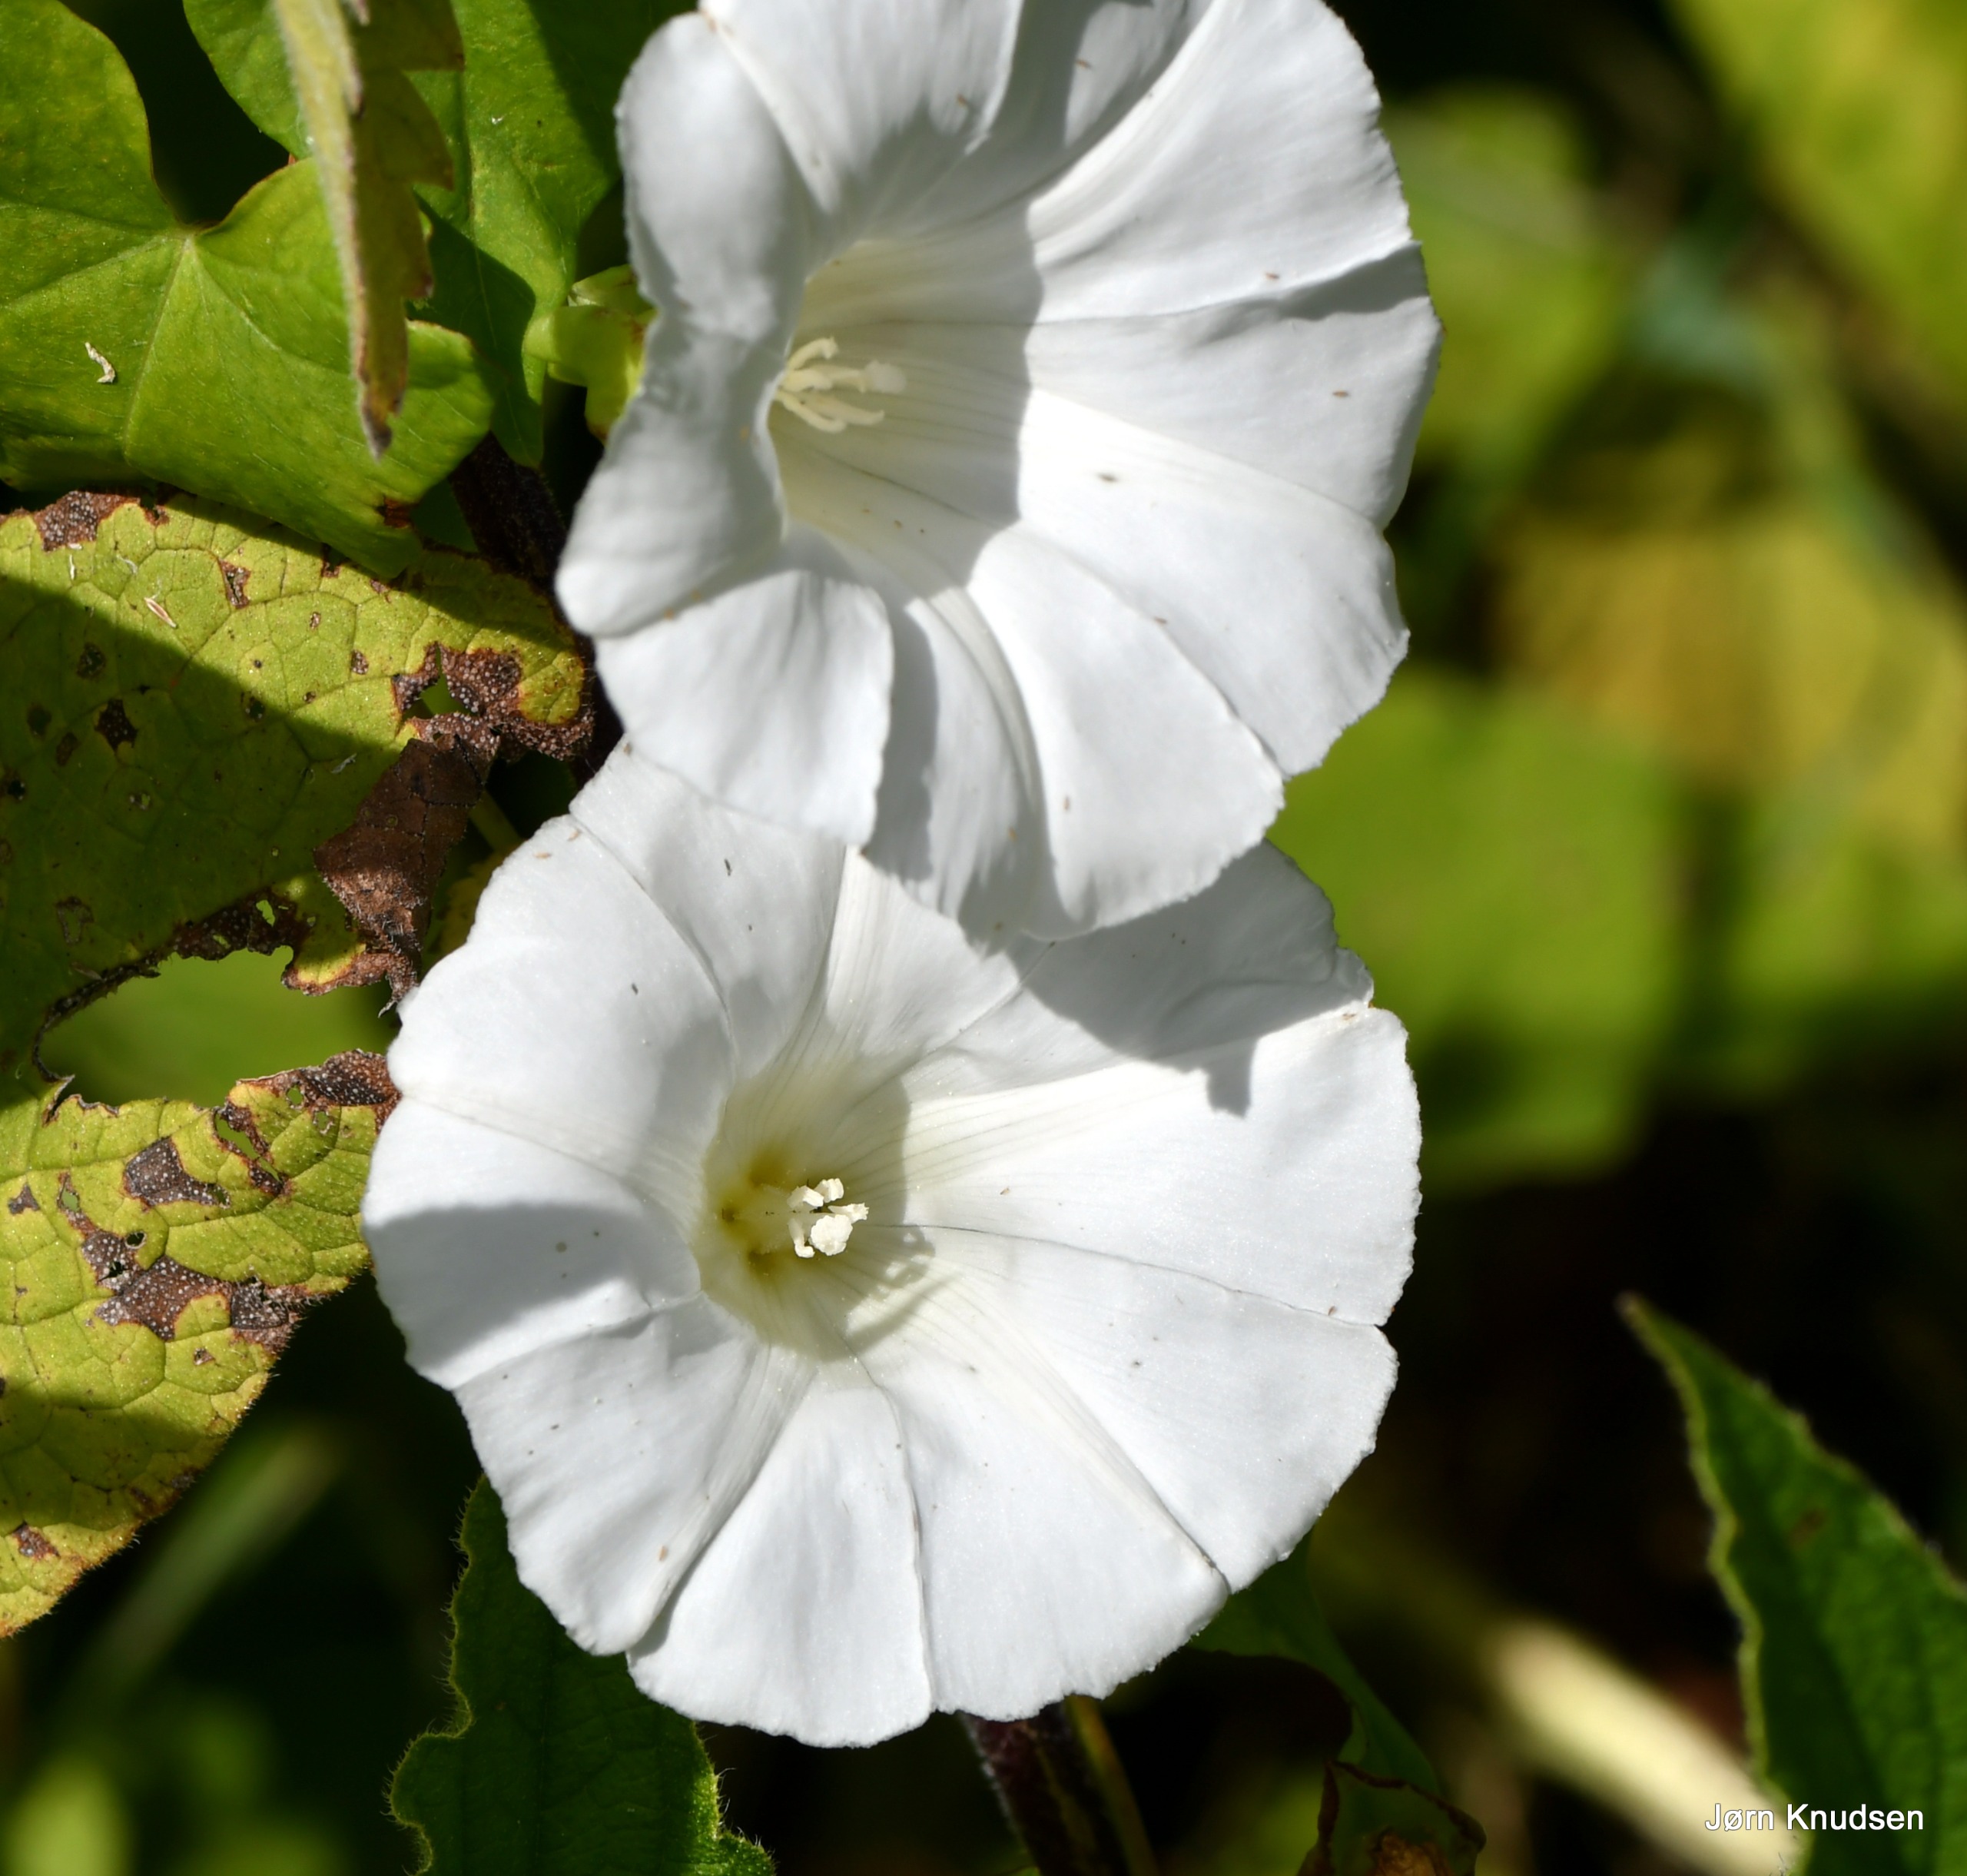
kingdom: Plantae
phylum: Tracheophyta
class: Magnoliopsida
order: Solanales
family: Convolvulaceae
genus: Calystegia
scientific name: Calystegia sepium
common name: Gærde-snerle
